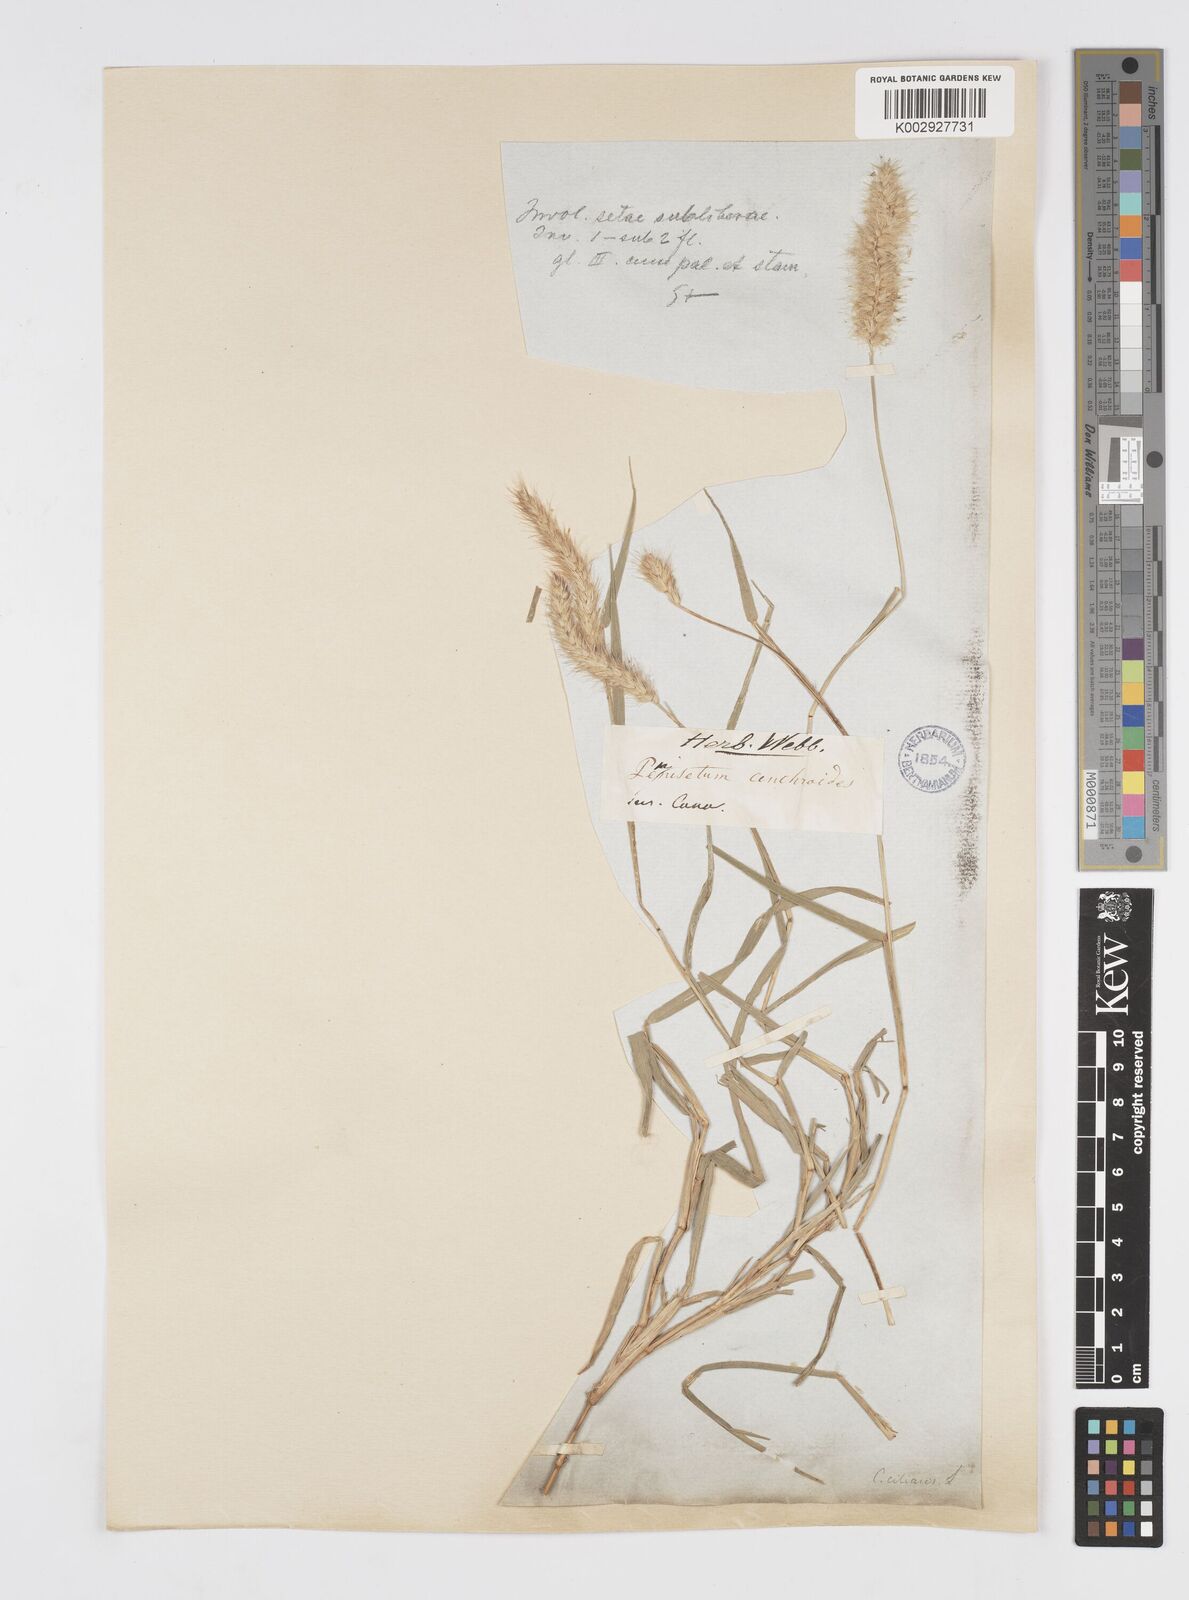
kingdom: Plantae
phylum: Tracheophyta
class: Liliopsida
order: Poales
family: Poaceae
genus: Cenchrus
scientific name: Cenchrus ciliaris
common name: Buffelgrass
